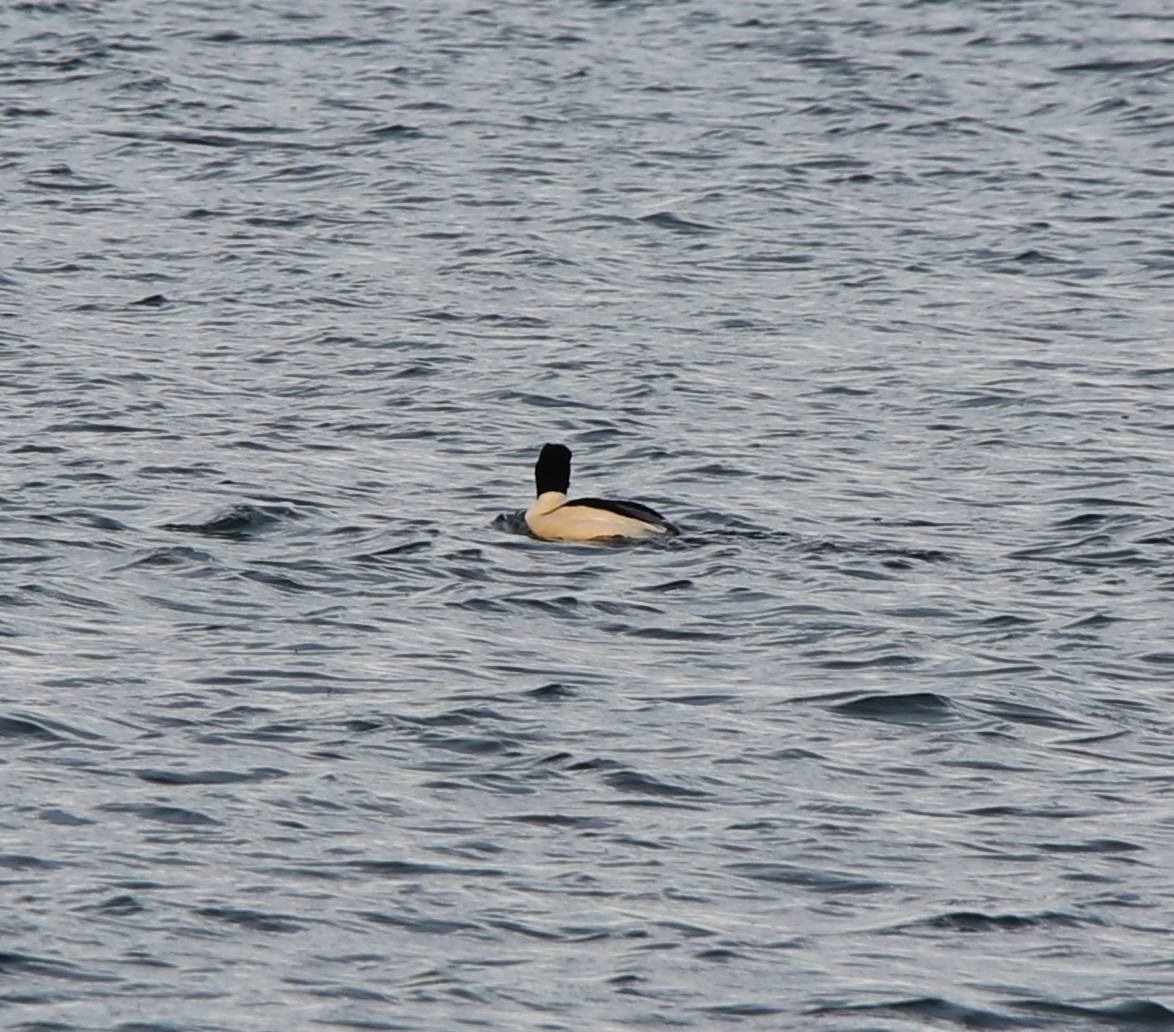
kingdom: Animalia
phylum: Chordata
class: Aves
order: Anseriformes
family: Anatidae
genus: Mergus
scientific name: Mergus merganser
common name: Stor skallesluger
